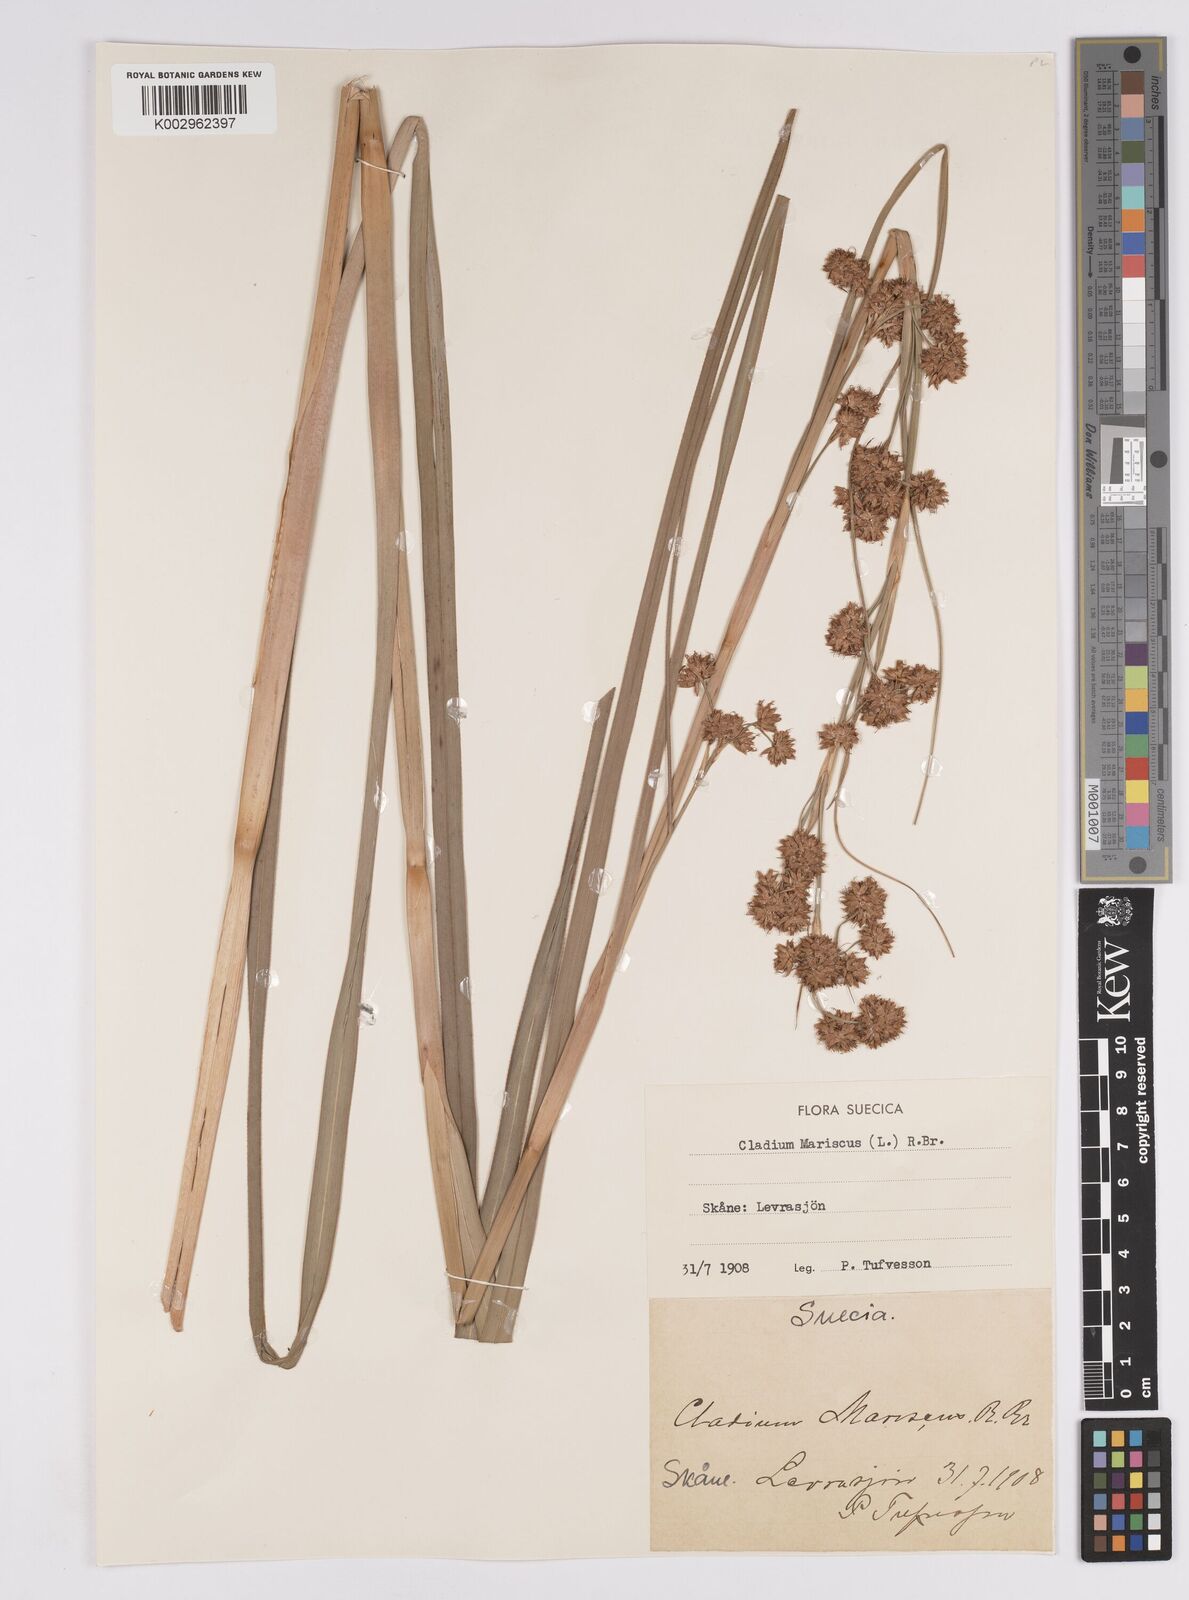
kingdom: Plantae
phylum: Tracheophyta
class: Liliopsida
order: Poales
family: Cyperaceae
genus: Cladium
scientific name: Cladium mariscus
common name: Great fen-sedge
